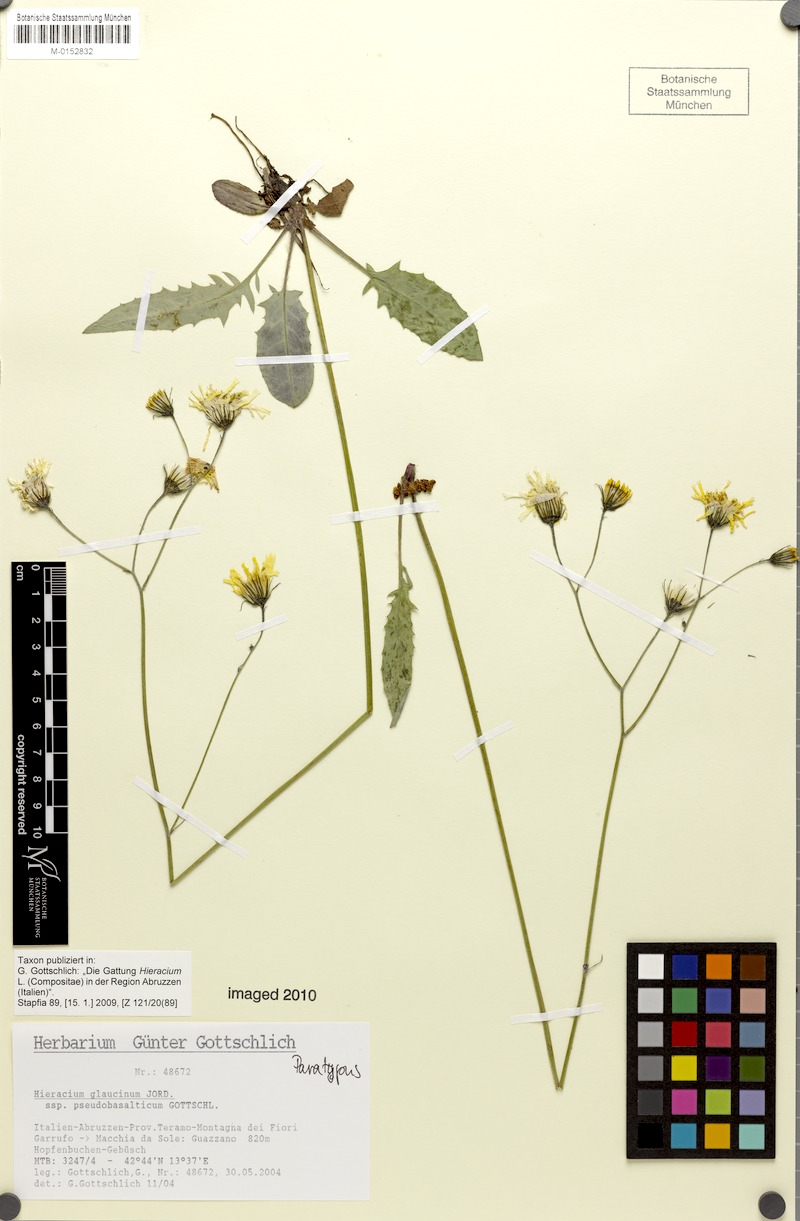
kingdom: Plantae
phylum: Tracheophyta
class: Magnoliopsida
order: Asterales
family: Asteraceae
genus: Hieracium
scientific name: Hieracium glaucinum
